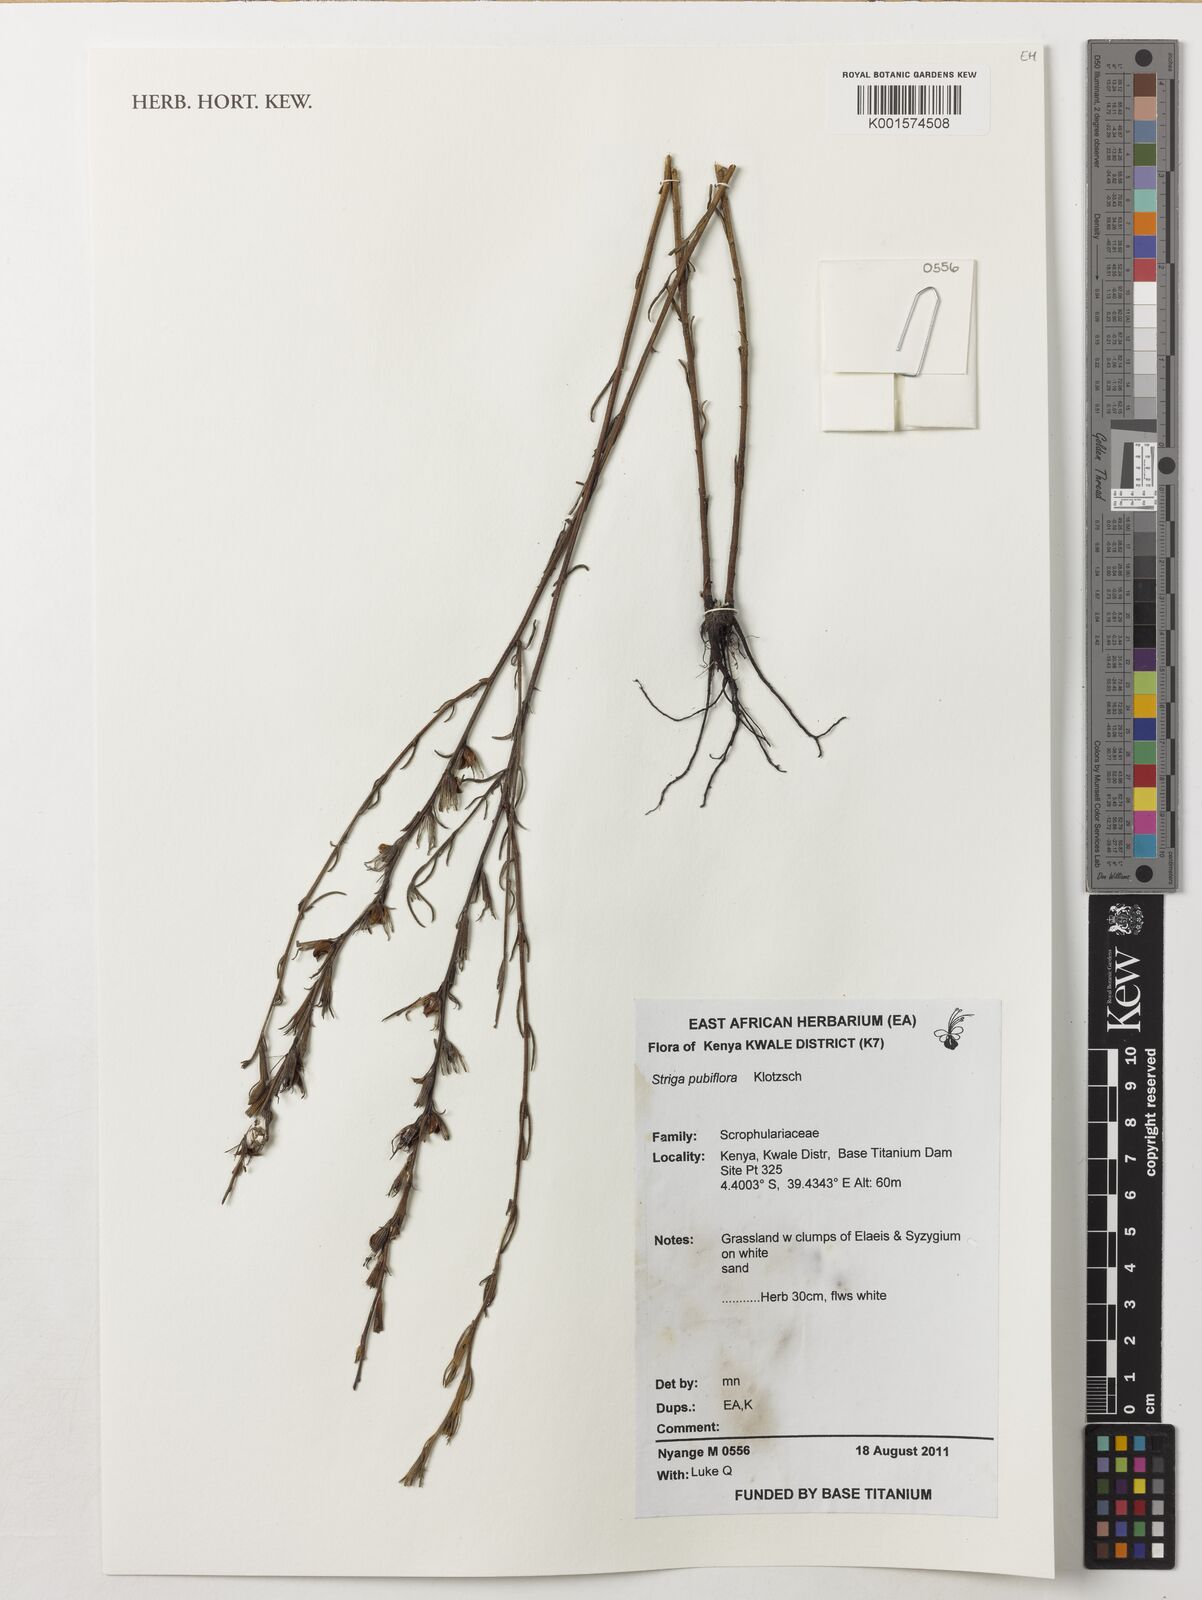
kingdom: Plantae
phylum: Tracheophyta
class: Magnoliopsida
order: Lamiales
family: Orobanchaceae
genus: Striga
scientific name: Striga pubiflora
